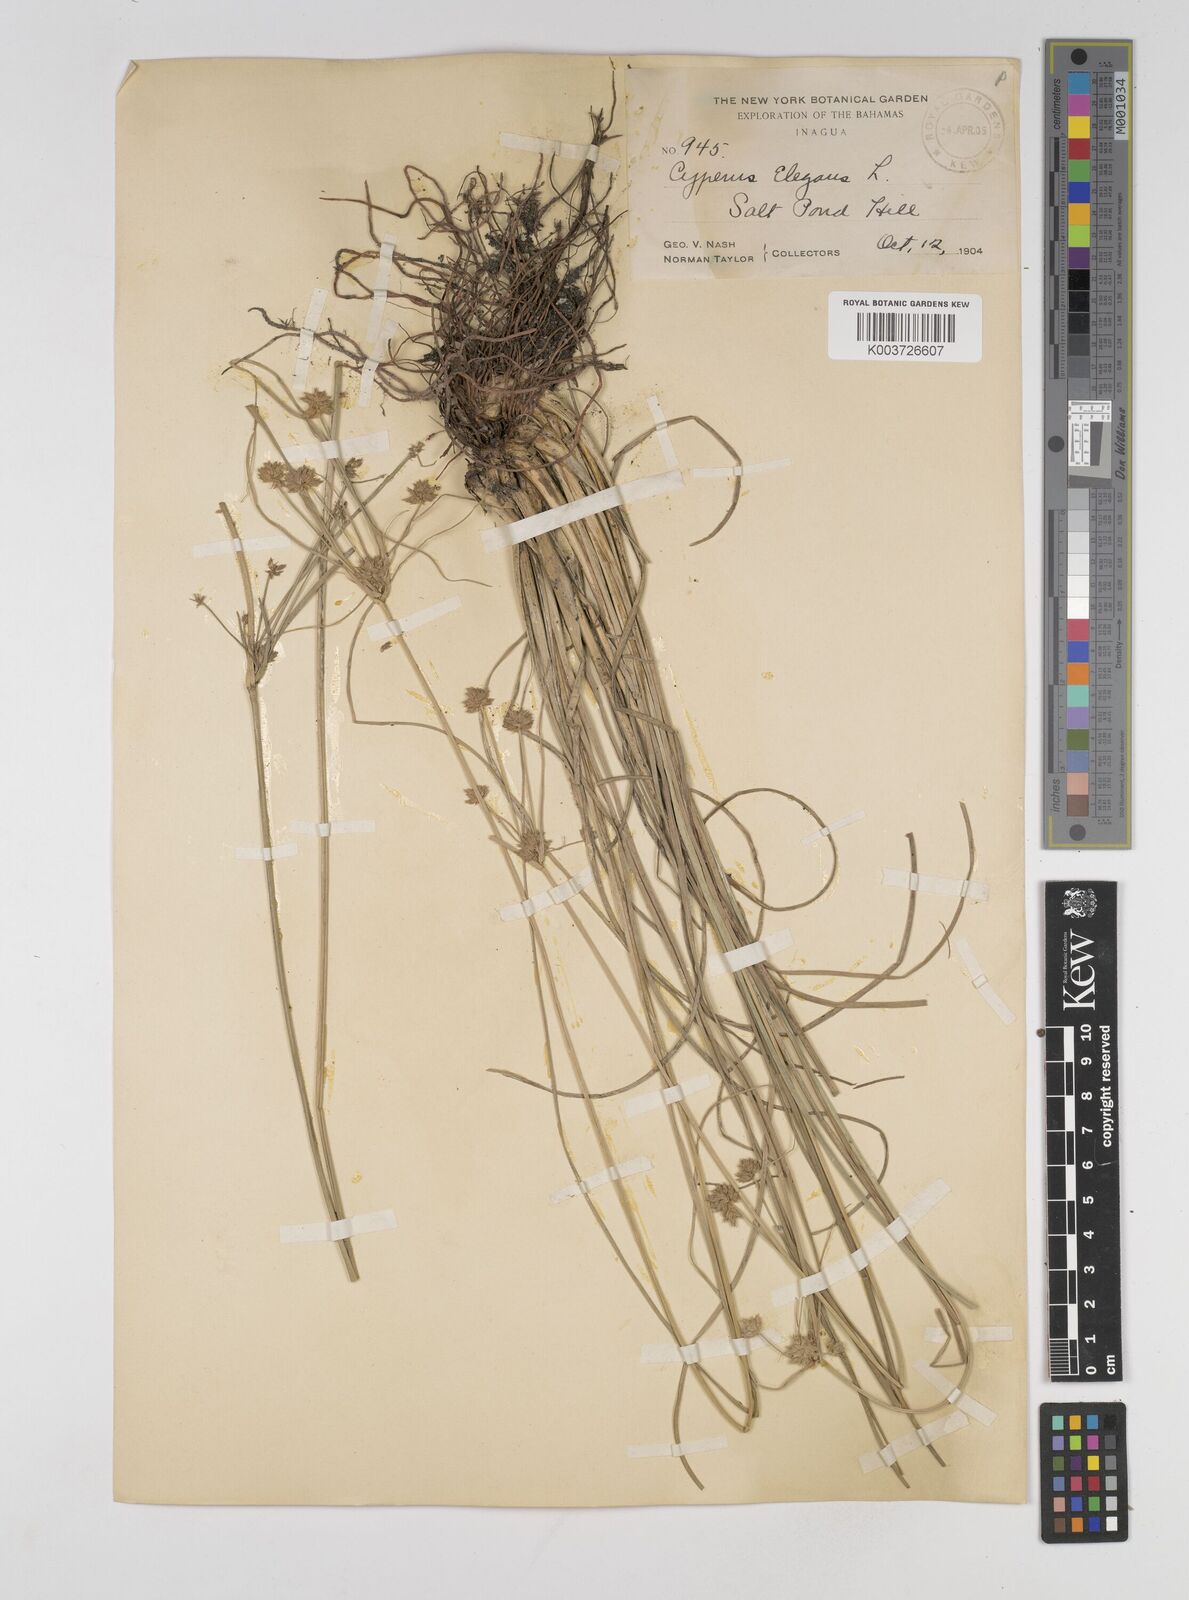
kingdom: Plantae
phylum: Tracheophyta
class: Liliopsida
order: Poales
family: Cyperaceae
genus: Cyperus
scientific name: Cyperus elegans
